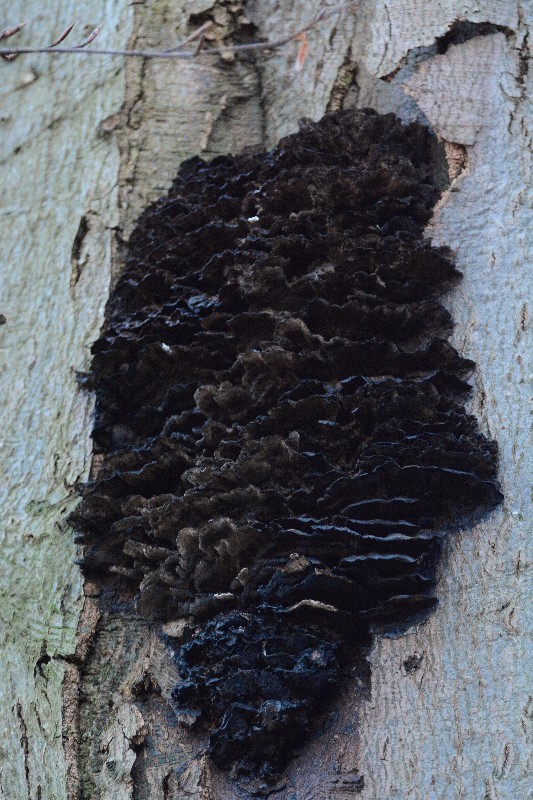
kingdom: Fungi
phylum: Basidiomycota
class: Agaricomycetes
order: Hymenochaetales
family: Hymenochaetaceae
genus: Inonotus
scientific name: Inonotus cuticularis
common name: kroghåret spejlporesvamp
